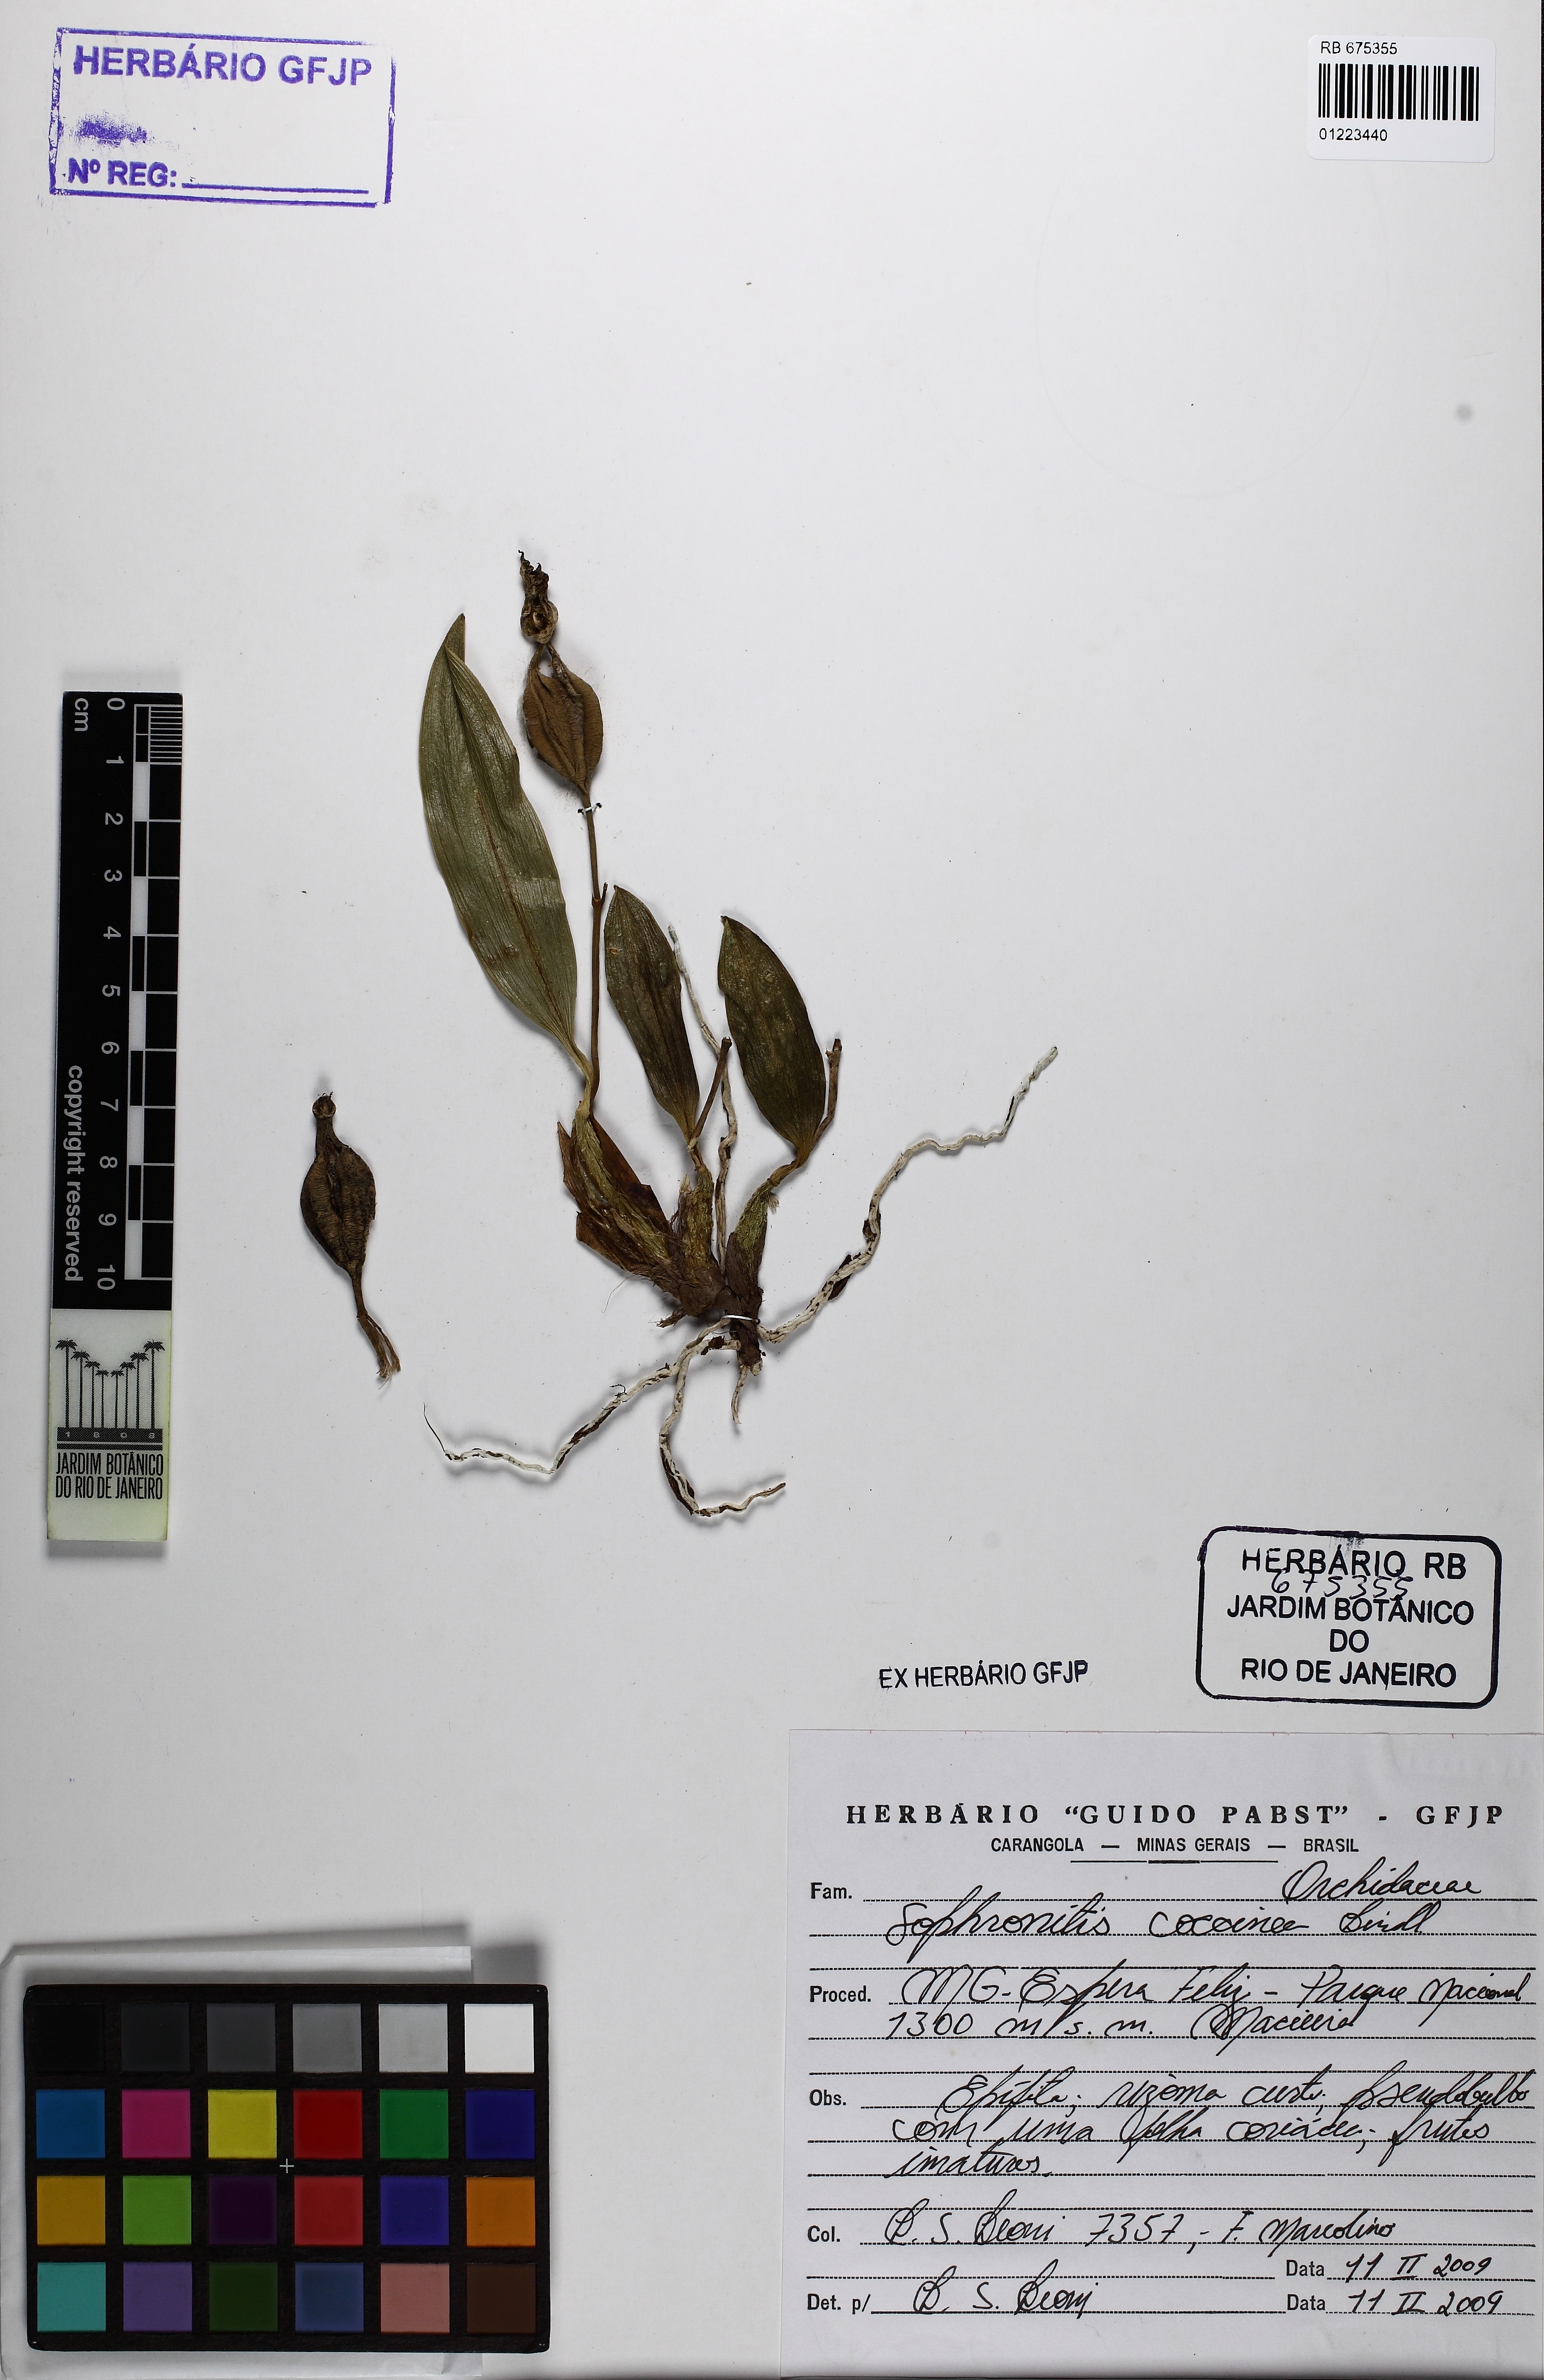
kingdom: Plantae
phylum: Tracheophyta
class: Liliopsida
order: Asparagales
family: Orchidaceae
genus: Cattleya
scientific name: Cattleya coccinea
